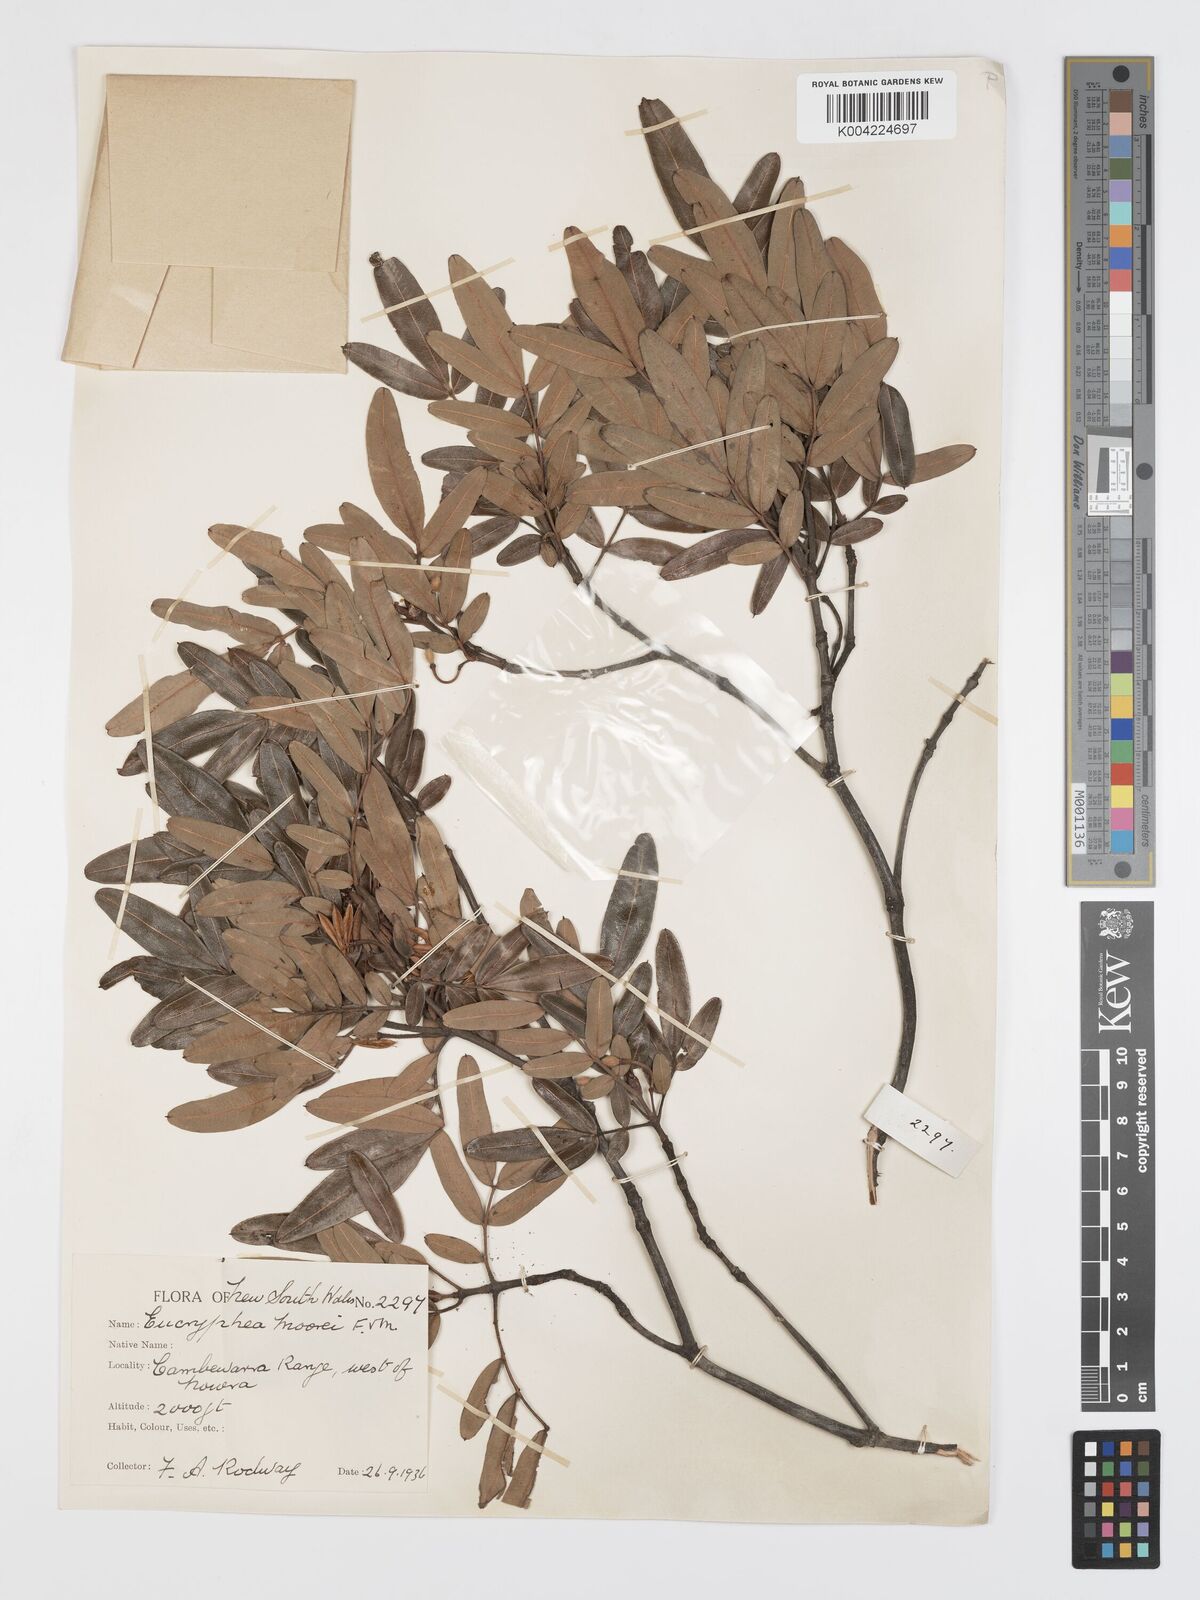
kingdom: Plantae
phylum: Tracheophyta
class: Magnoliopsida
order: Oxalidales
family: Cunoniaceae
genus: Eucryphia
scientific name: Eucryphia moorei
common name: Acacia-plum
